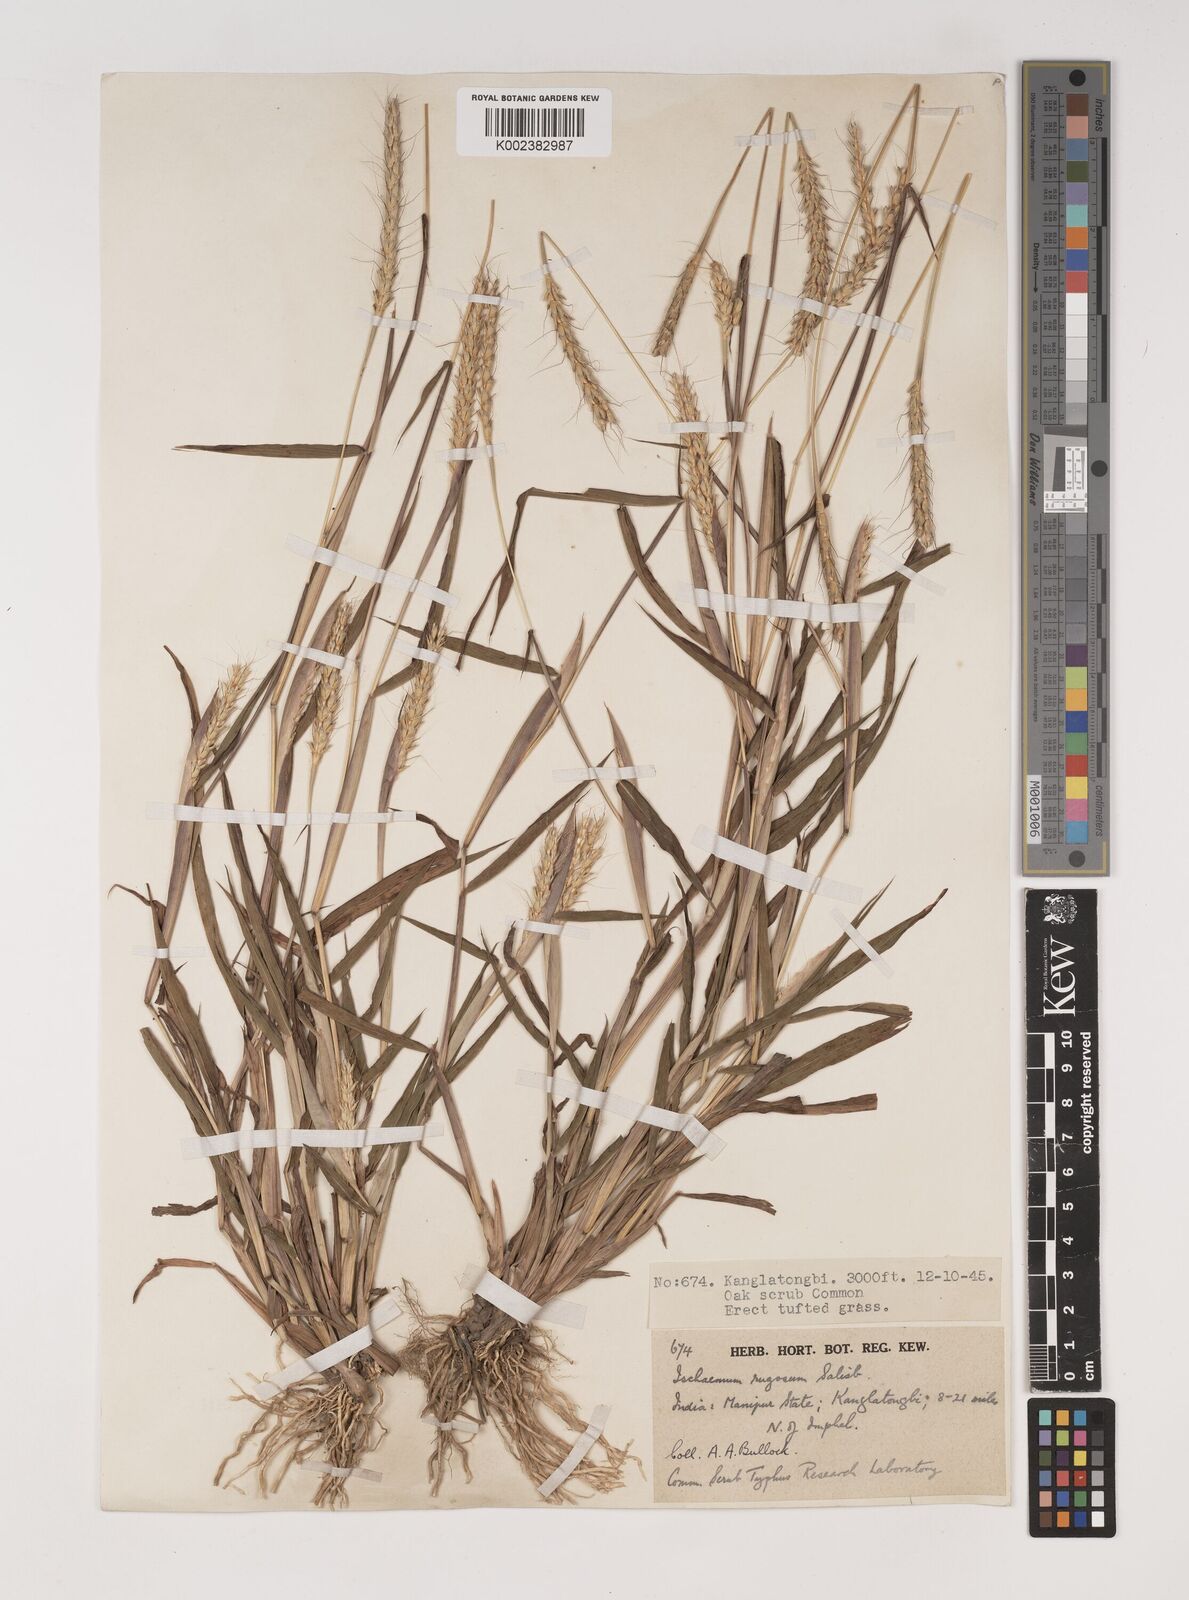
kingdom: Plantae
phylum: Tracheophyta
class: Liliopsida
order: Poales
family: Poaceae
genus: Ischaemum
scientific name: Ischaemum rugosum
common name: Saramatta grass
